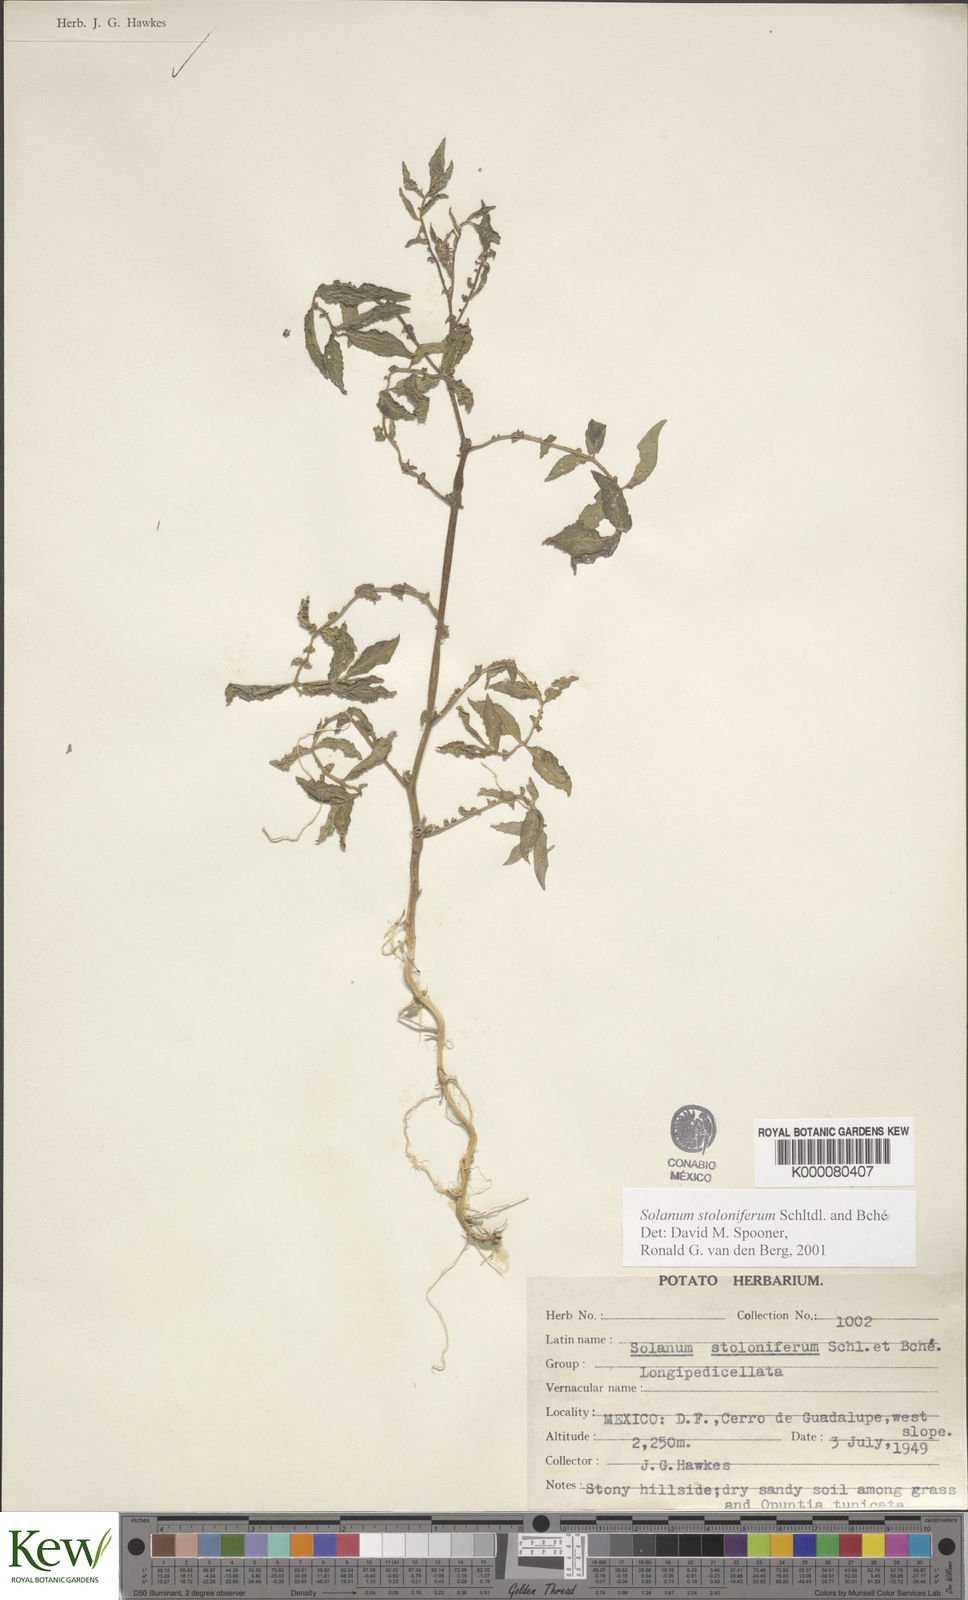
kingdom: Plantae
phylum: Tracheophyta
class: Magnoliopsida
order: Solanales
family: Solanaceae
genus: Solanum
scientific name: Solanum stoloniferum
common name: Fendler's nighshade
